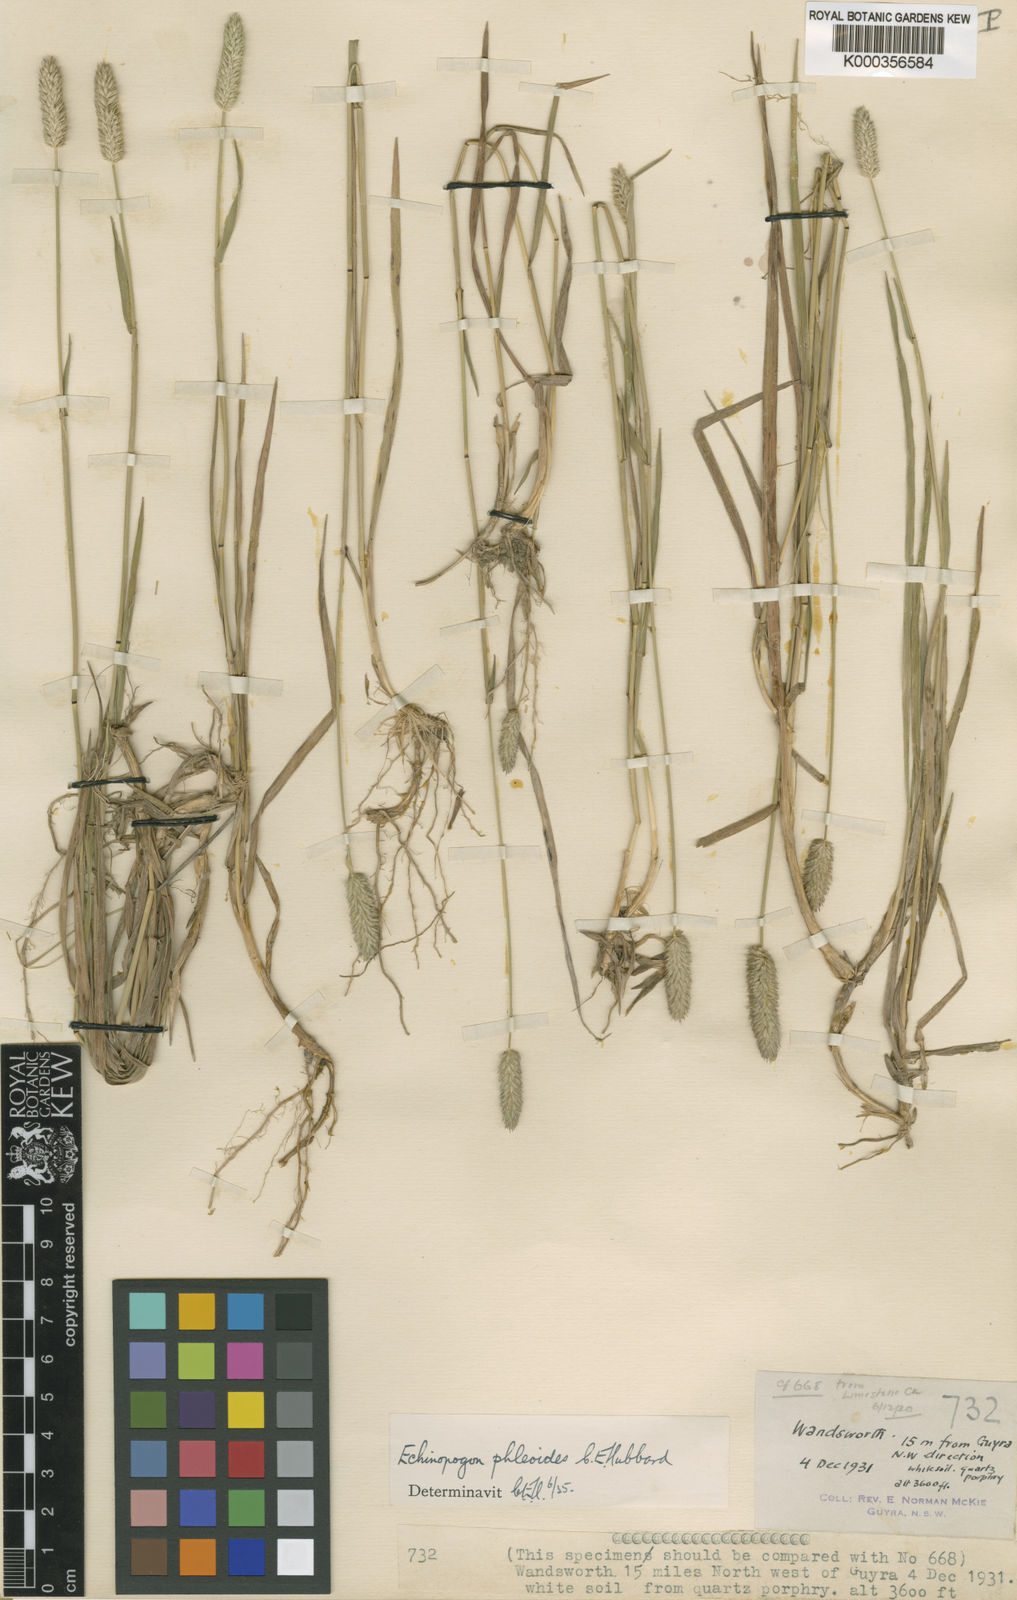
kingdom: Plantae
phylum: Tracheophyta
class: Liliopsida
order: Poales
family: Poaceae
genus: Echinopogon
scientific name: Echinopogon phleoides
